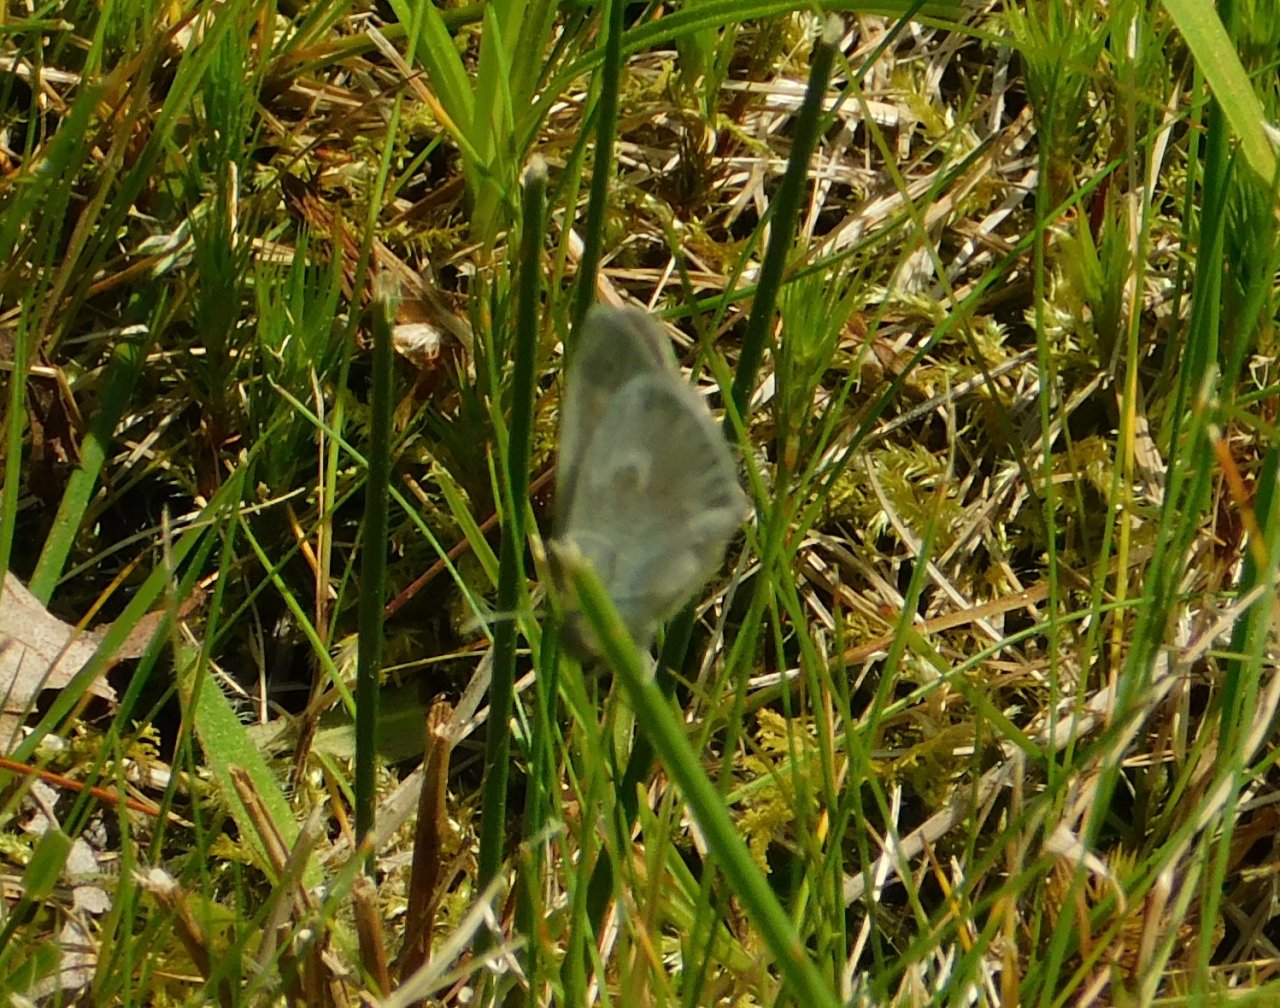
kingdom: Animalia
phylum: Arthropoda
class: Insecta
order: Lepidoptera
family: Nymphalidae
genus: Coenonympha
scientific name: Coenonympha tullia
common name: Large Heath
